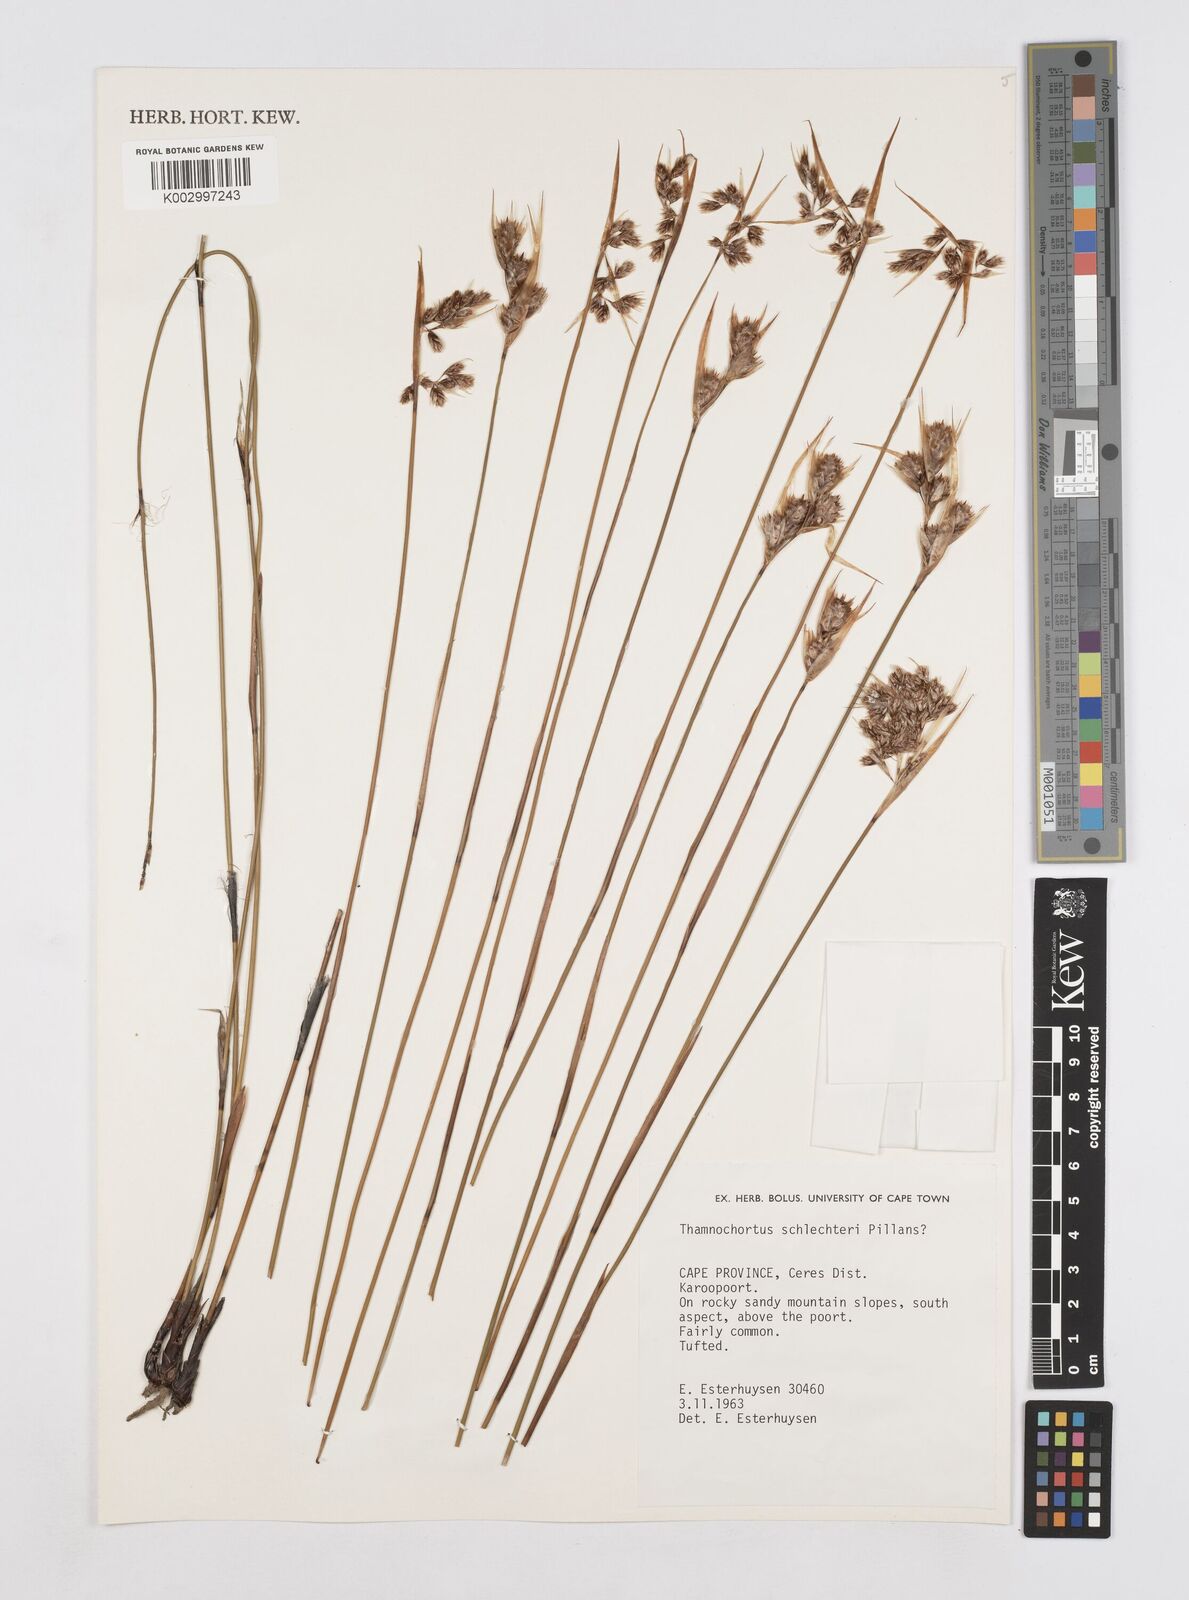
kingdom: Plantae
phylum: Tracheophyta
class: Liliopsida
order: Poales
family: Restionaceae
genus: Thamnochortus
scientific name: Thamnochortus schlechteri
